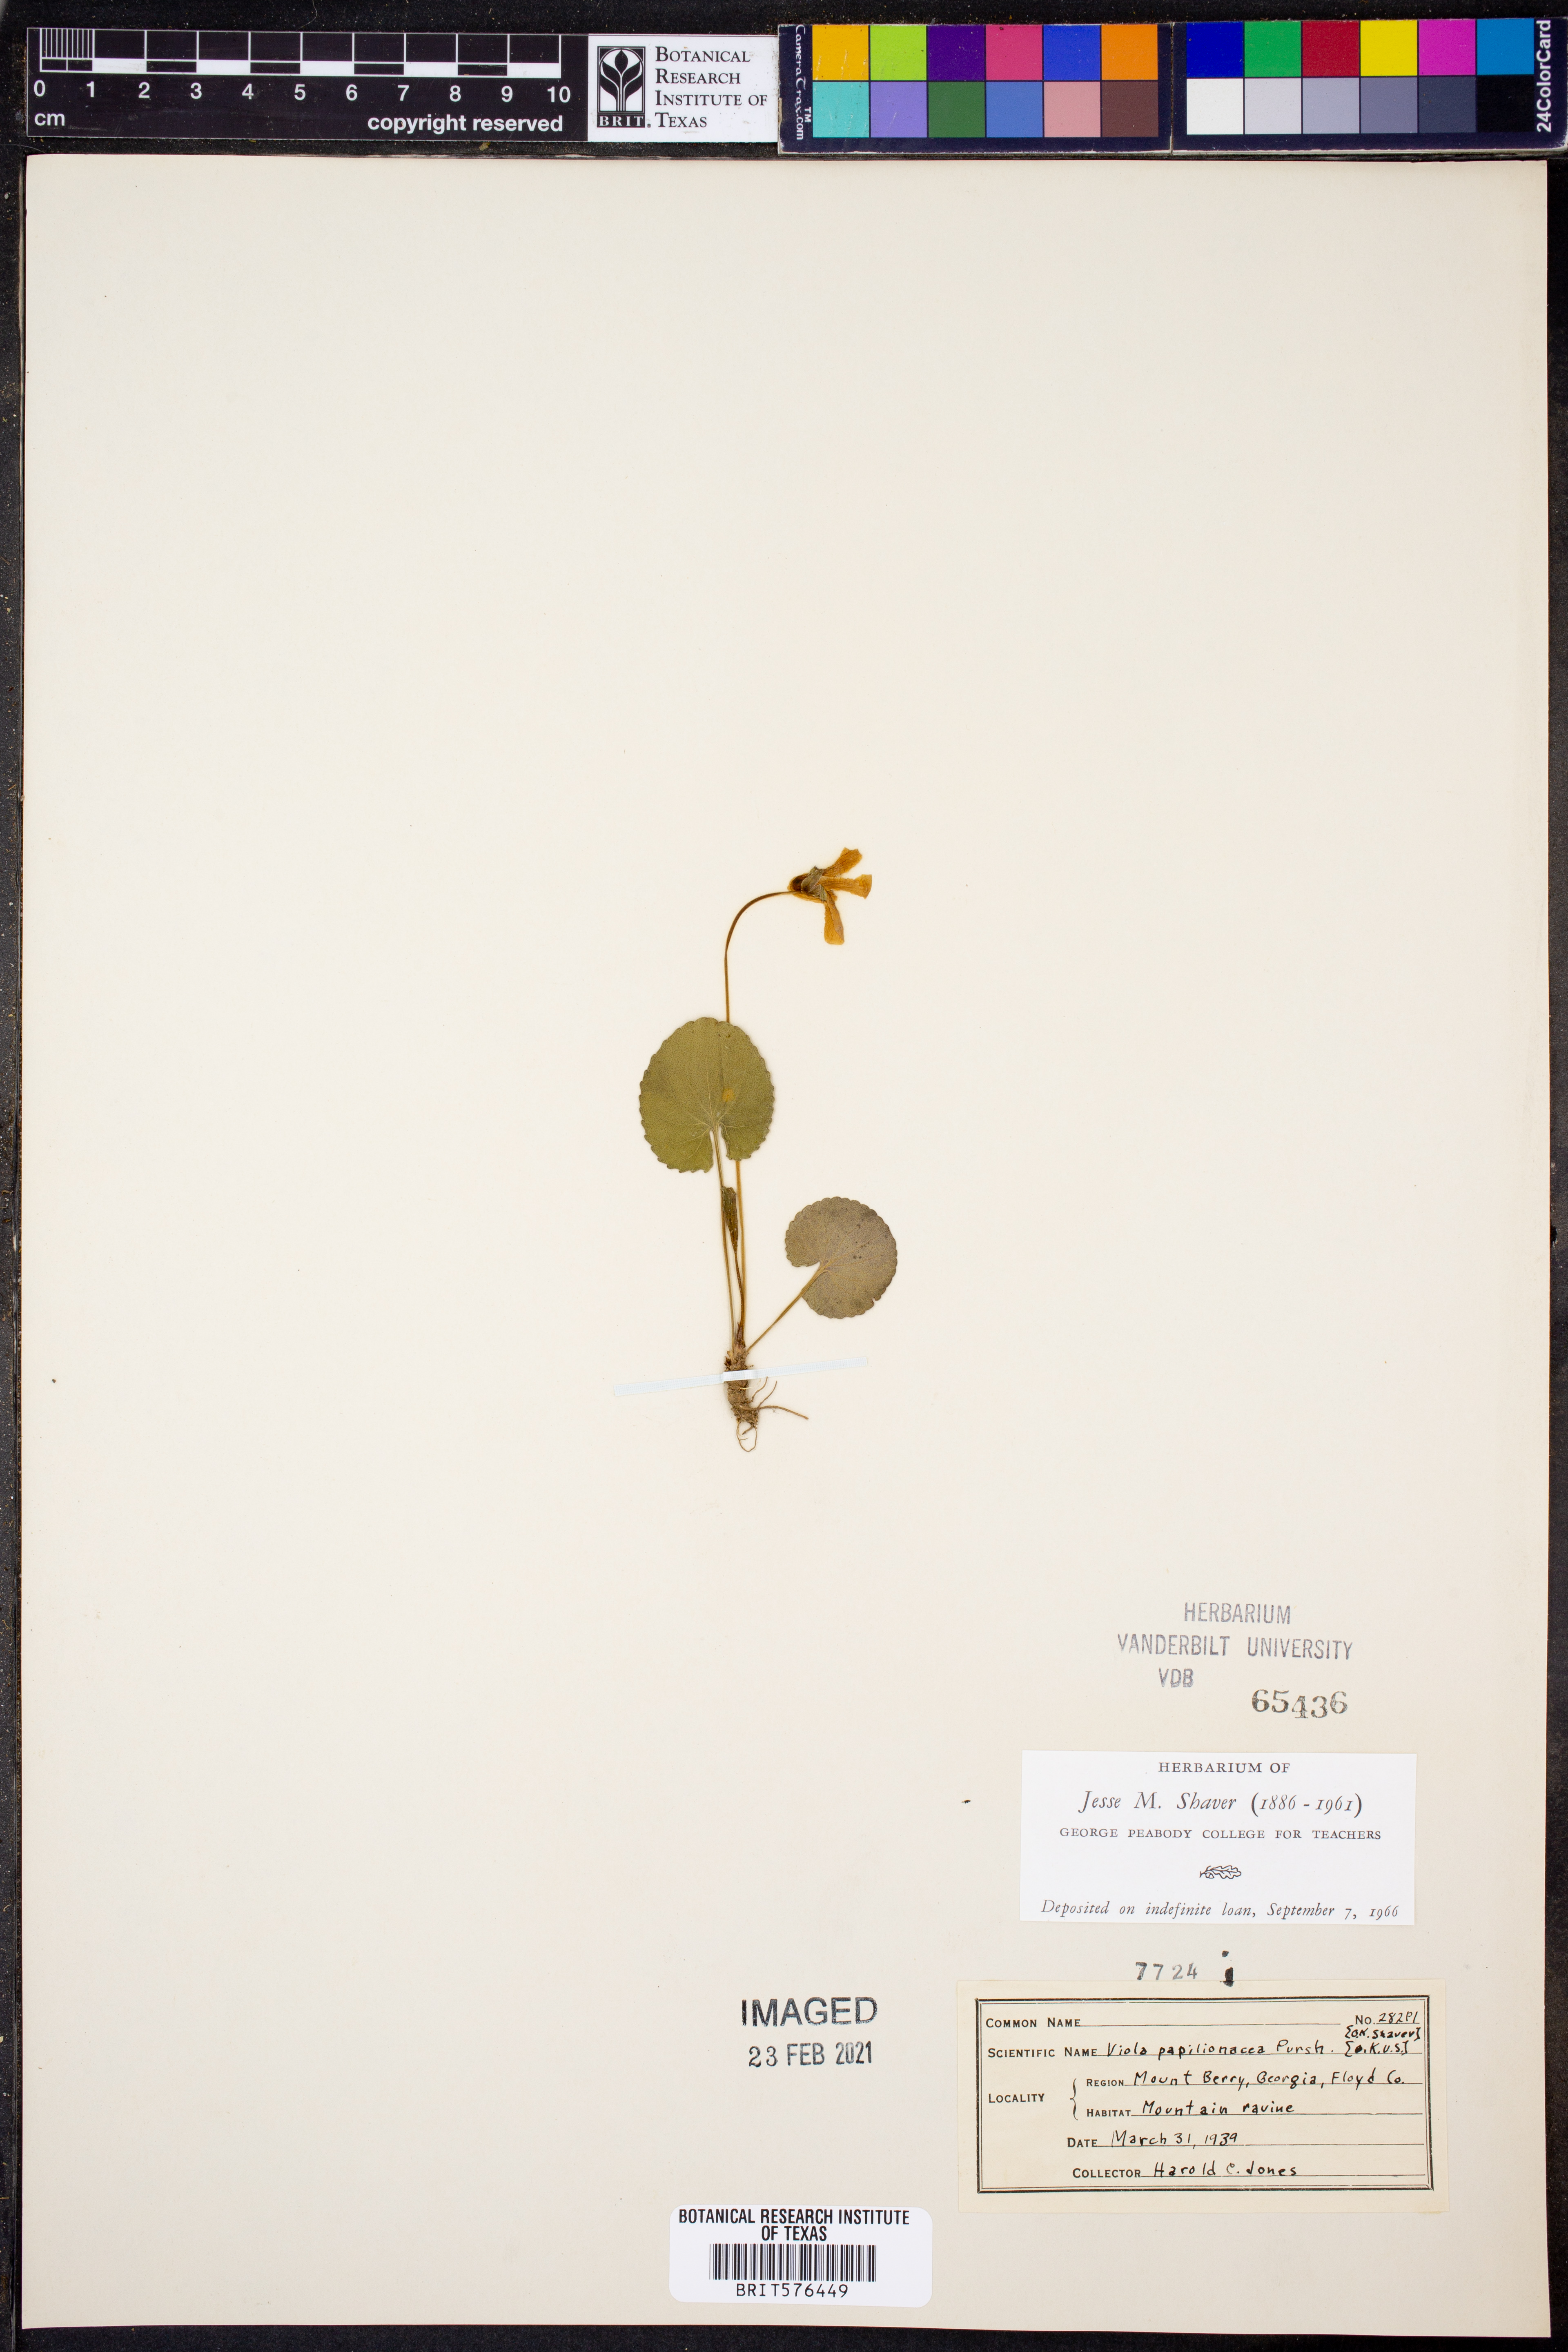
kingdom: Plantae
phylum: Tracheophyta
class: Magnoliopsida
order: Malpighiales
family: Violaceae
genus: Viola
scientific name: Viola sororia
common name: Dooryard violet
